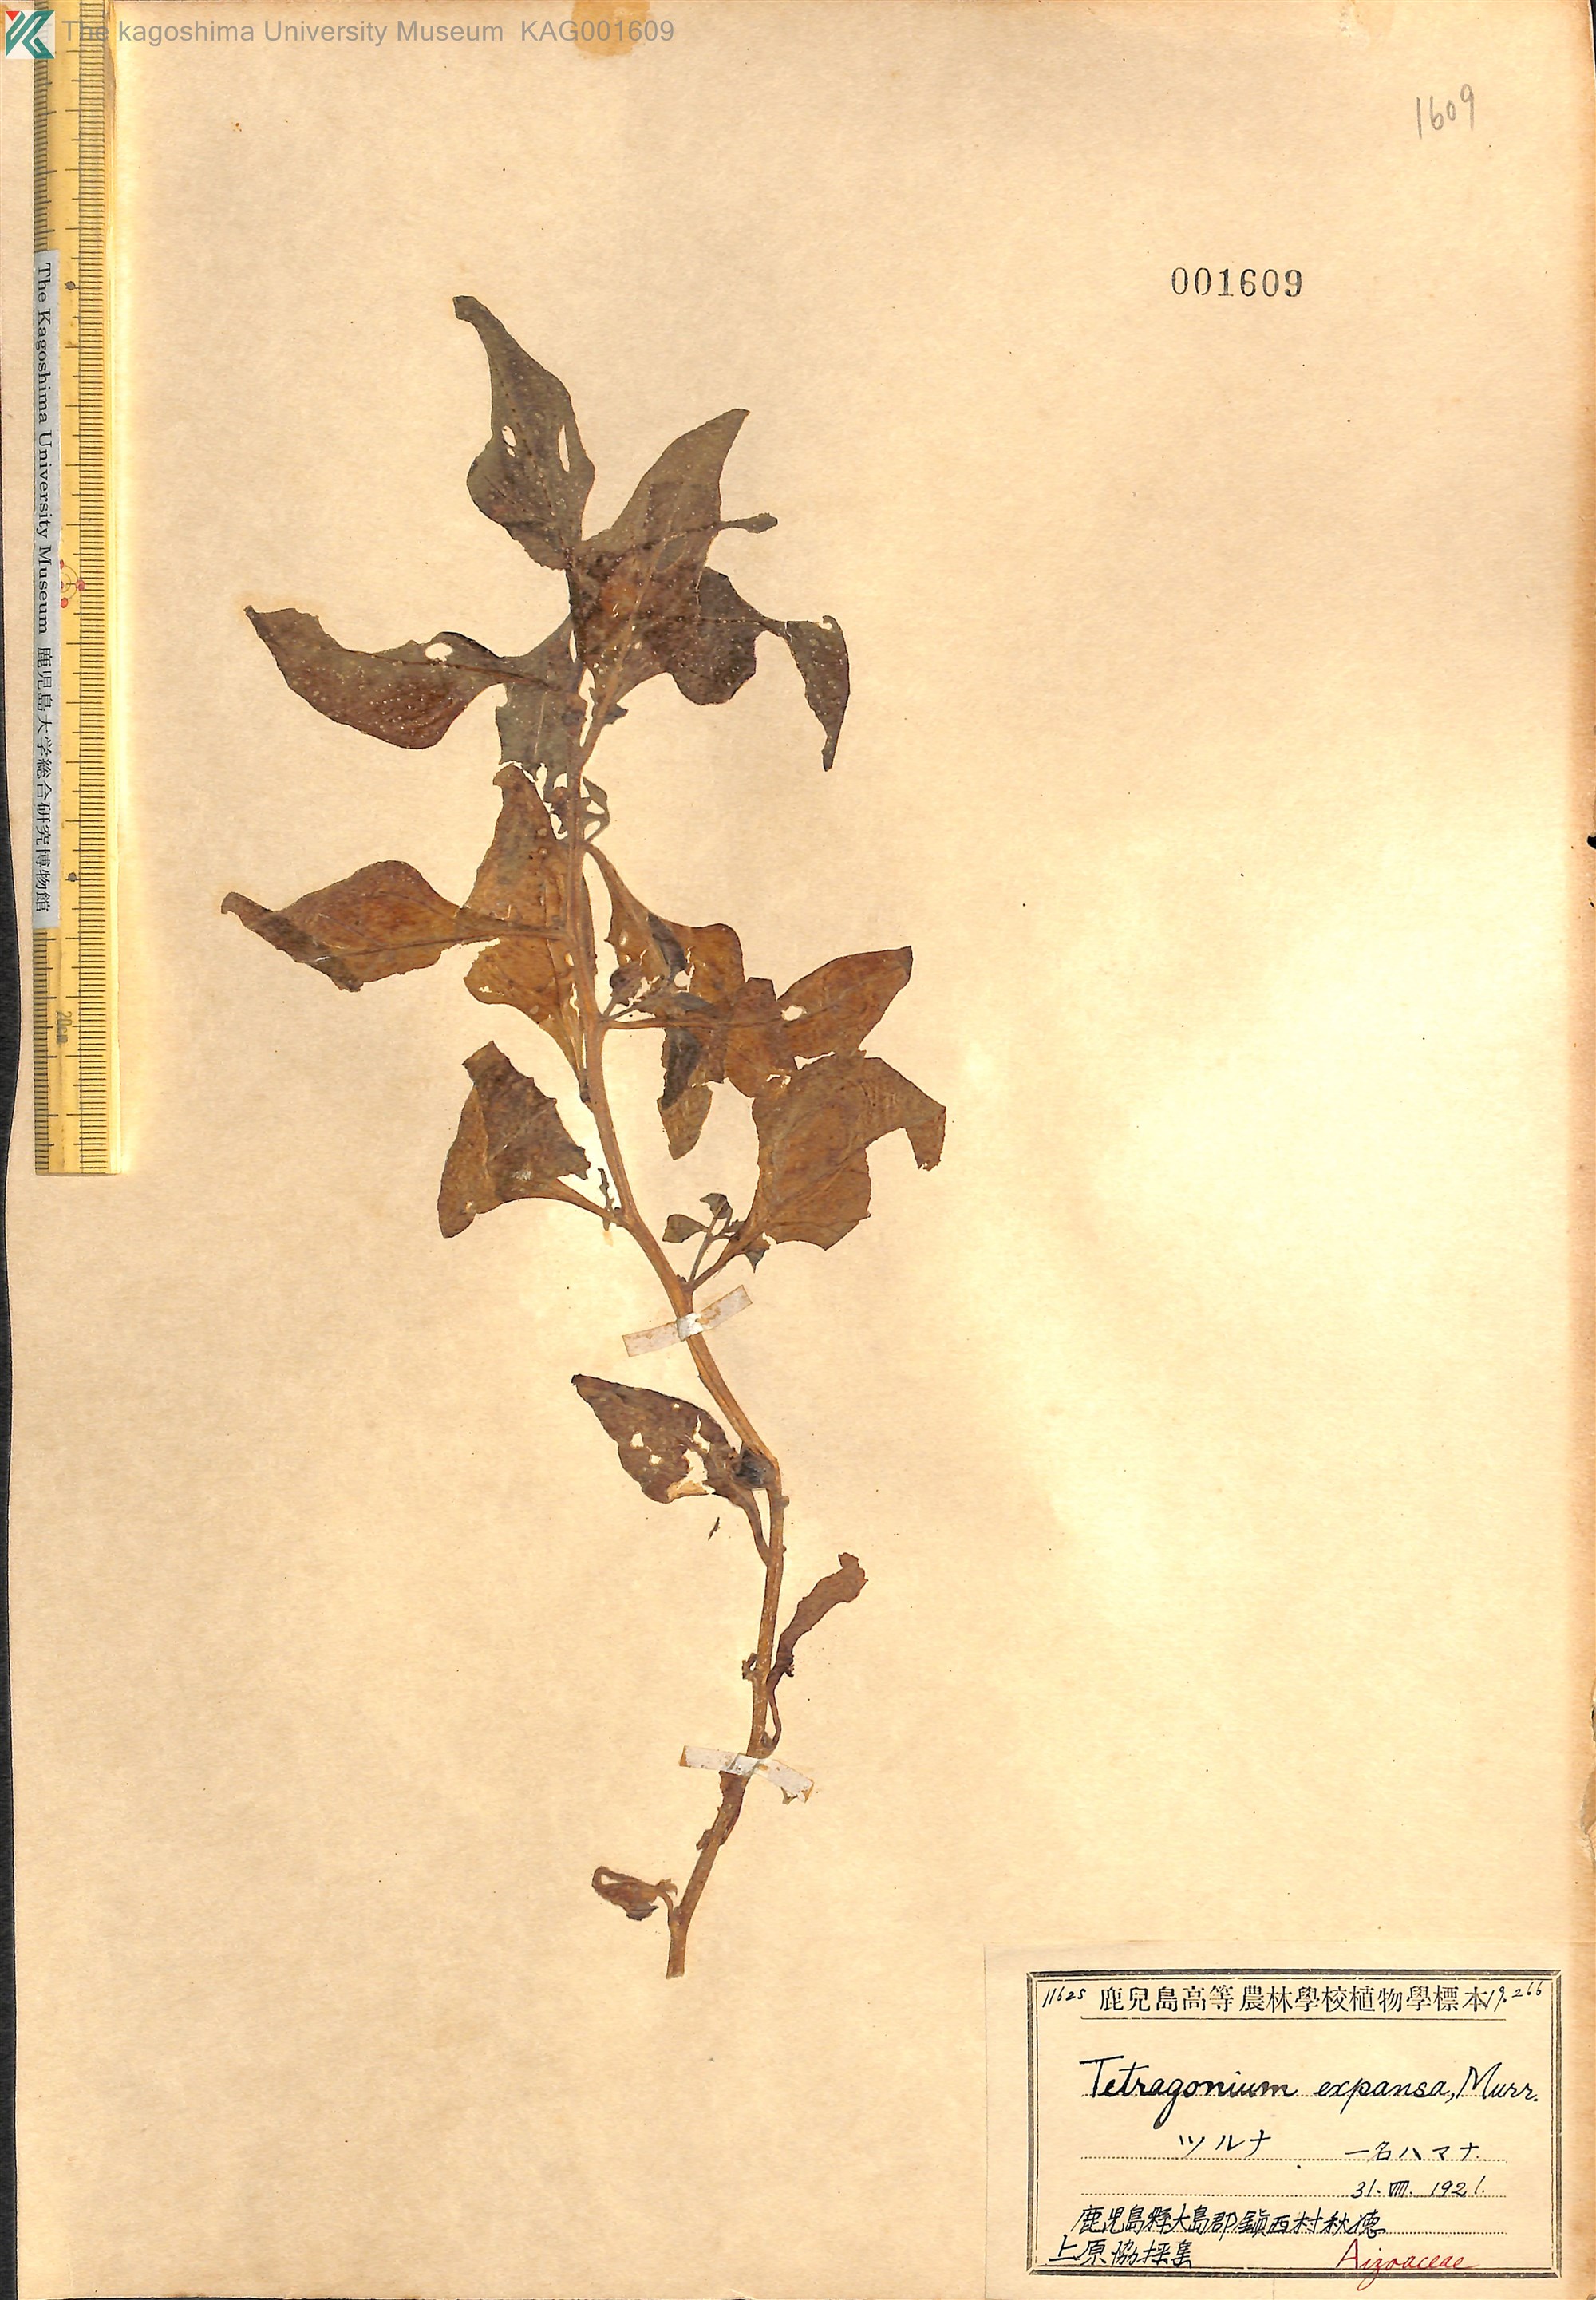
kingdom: Plantae
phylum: Tracheophyta
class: Magnoliopsida
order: Caryophyllales
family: Aizoaceae
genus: Tetragonia
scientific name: Tetragonia tetragonoides
